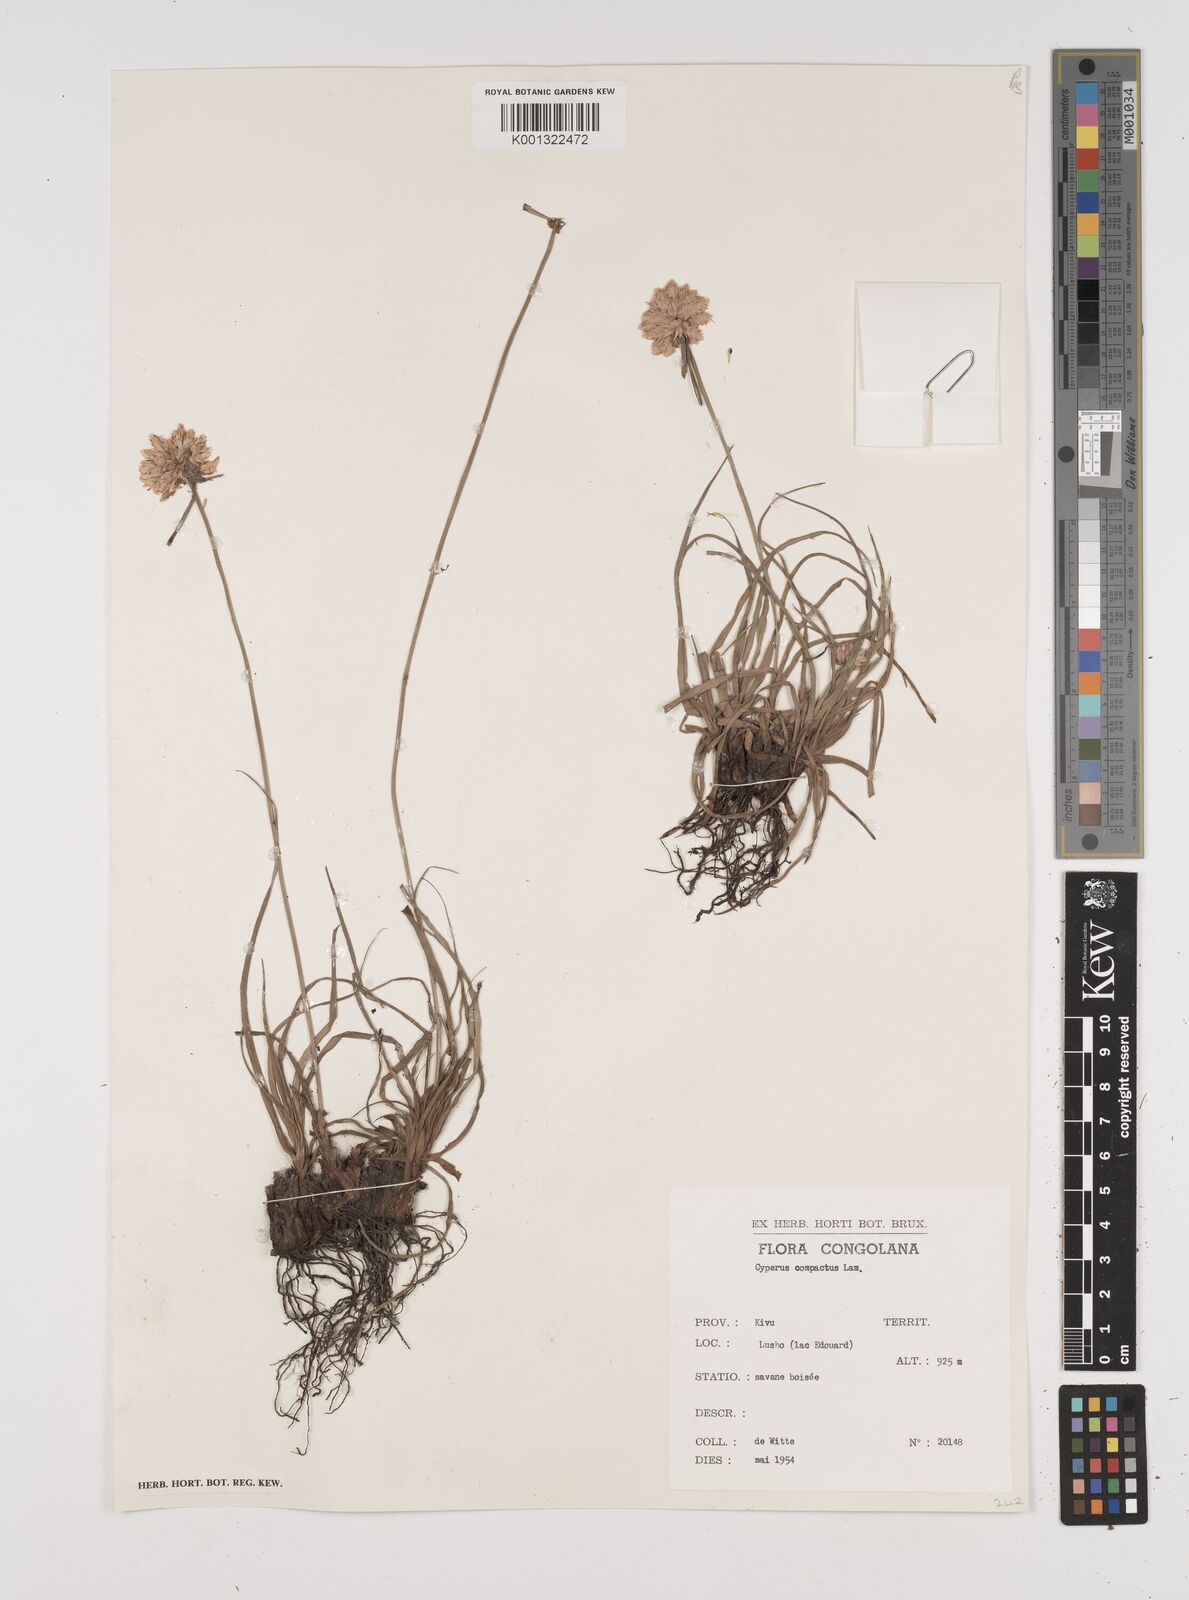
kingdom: Plantae
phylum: Tracheophyta
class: Liliopsida
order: Poales
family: Cyperaceae
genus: Cyperus
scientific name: Cyperus niveus
